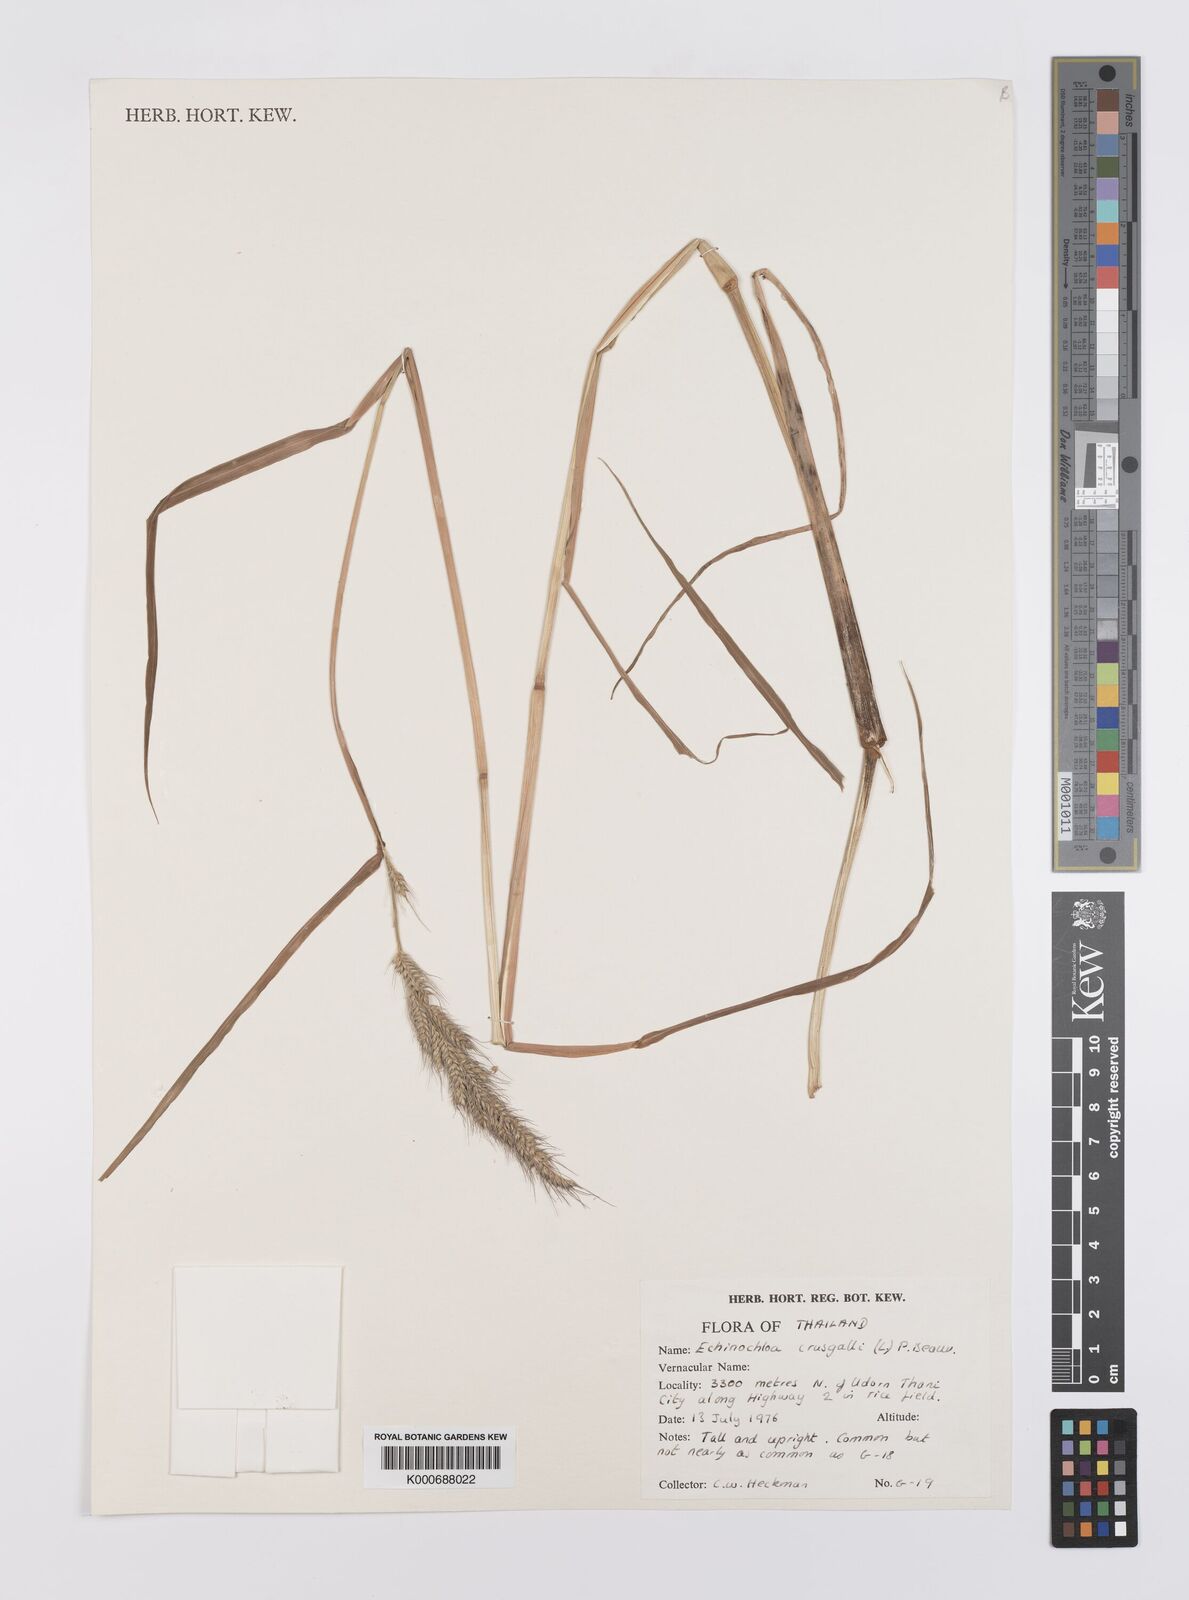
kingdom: Plantae
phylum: Tracheophyta
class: Liliopsida
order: Poales
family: Poaceae
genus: Echinochloa
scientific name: Echinochloa crus-galli
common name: Cockspur
